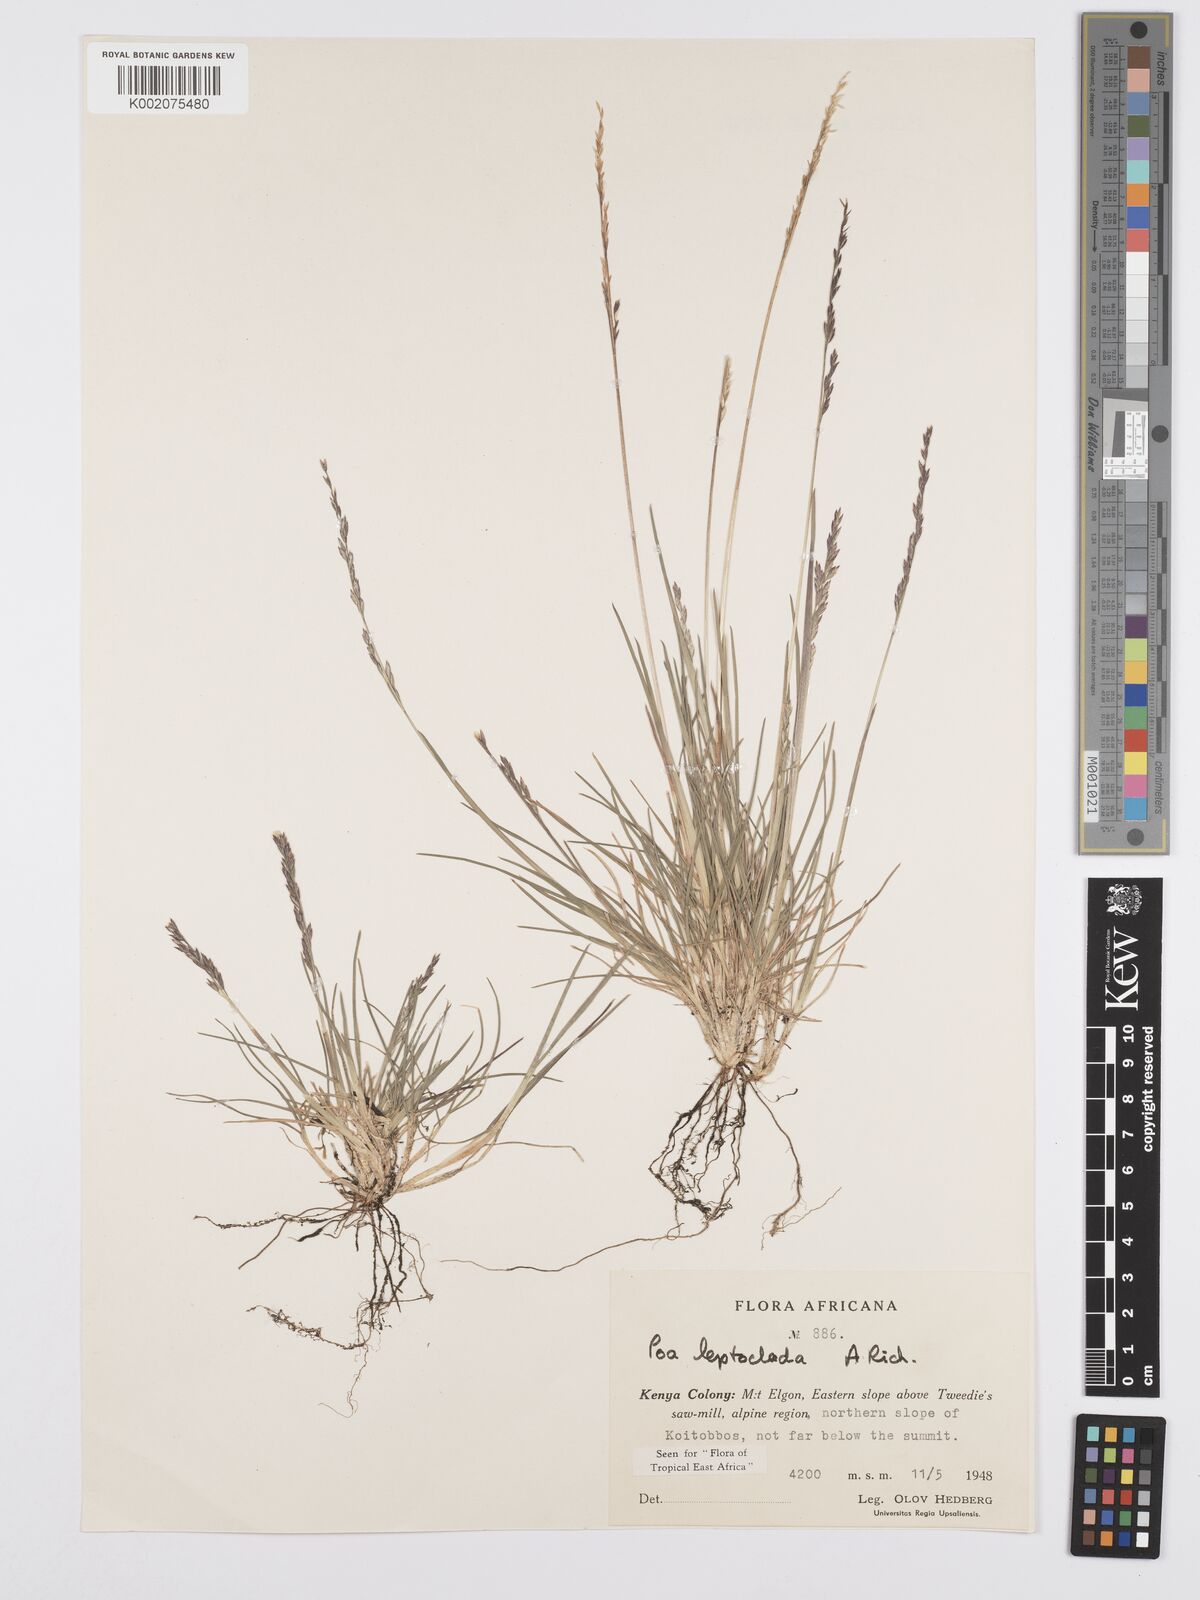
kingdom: Plantae
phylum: Tracheophyta
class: Liliopsida
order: Poales
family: Poaceae
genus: Poa
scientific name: Poa leptoclada
